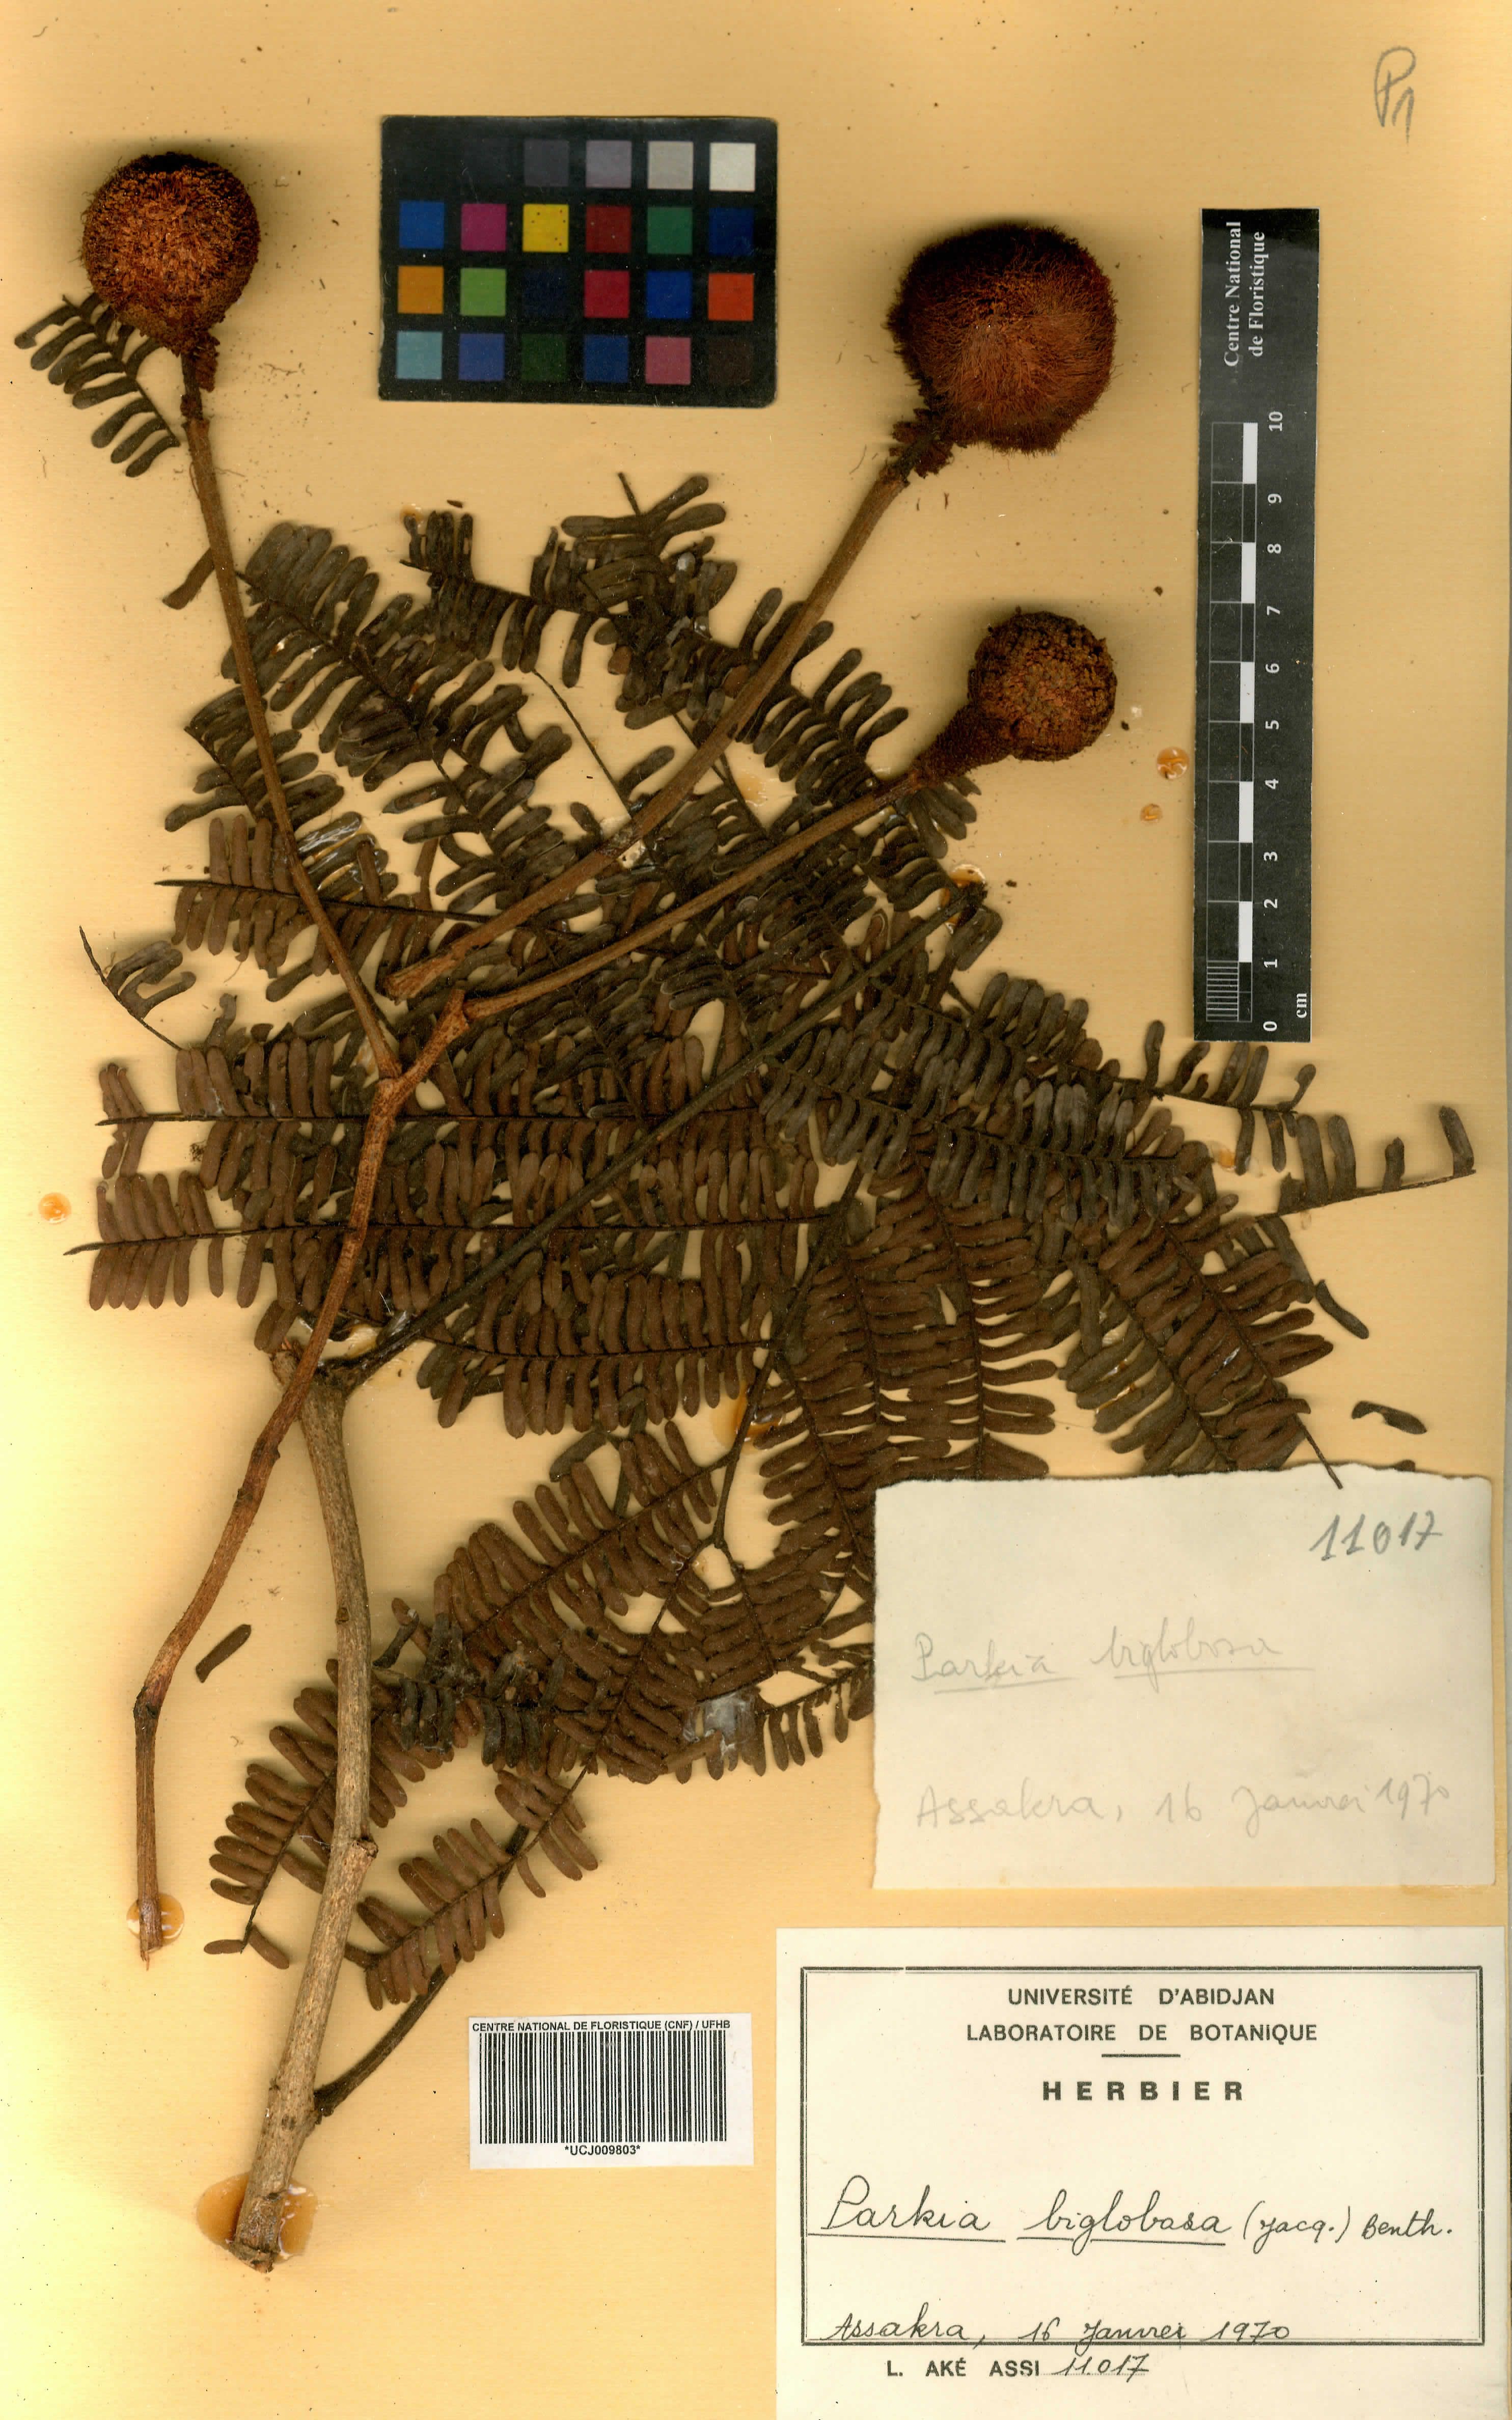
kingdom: Plantae
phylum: Tracheophyta
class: Magnoliopsida
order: Fabales
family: Fabaceae
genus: Parkia
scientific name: Parkia timoriana
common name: Legume
